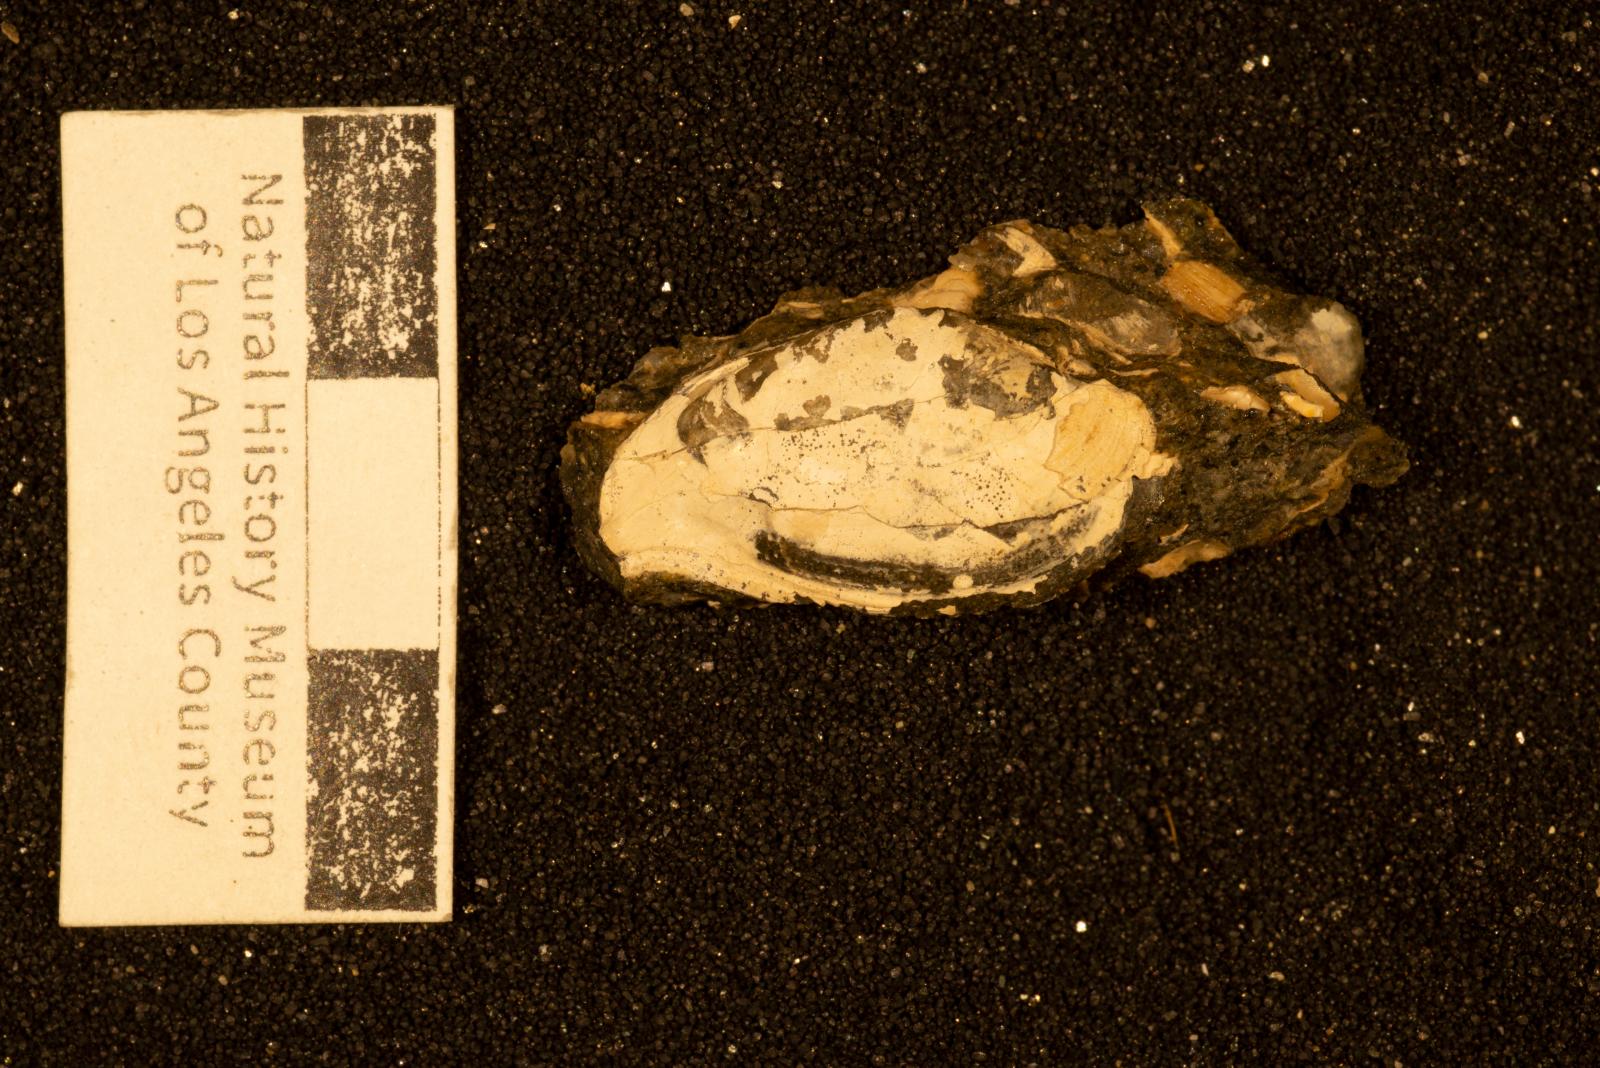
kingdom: Animalia
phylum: Mollusca
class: Bivalvia
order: Cardiida
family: Tellinidae
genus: Tellinella
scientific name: Tellinella
